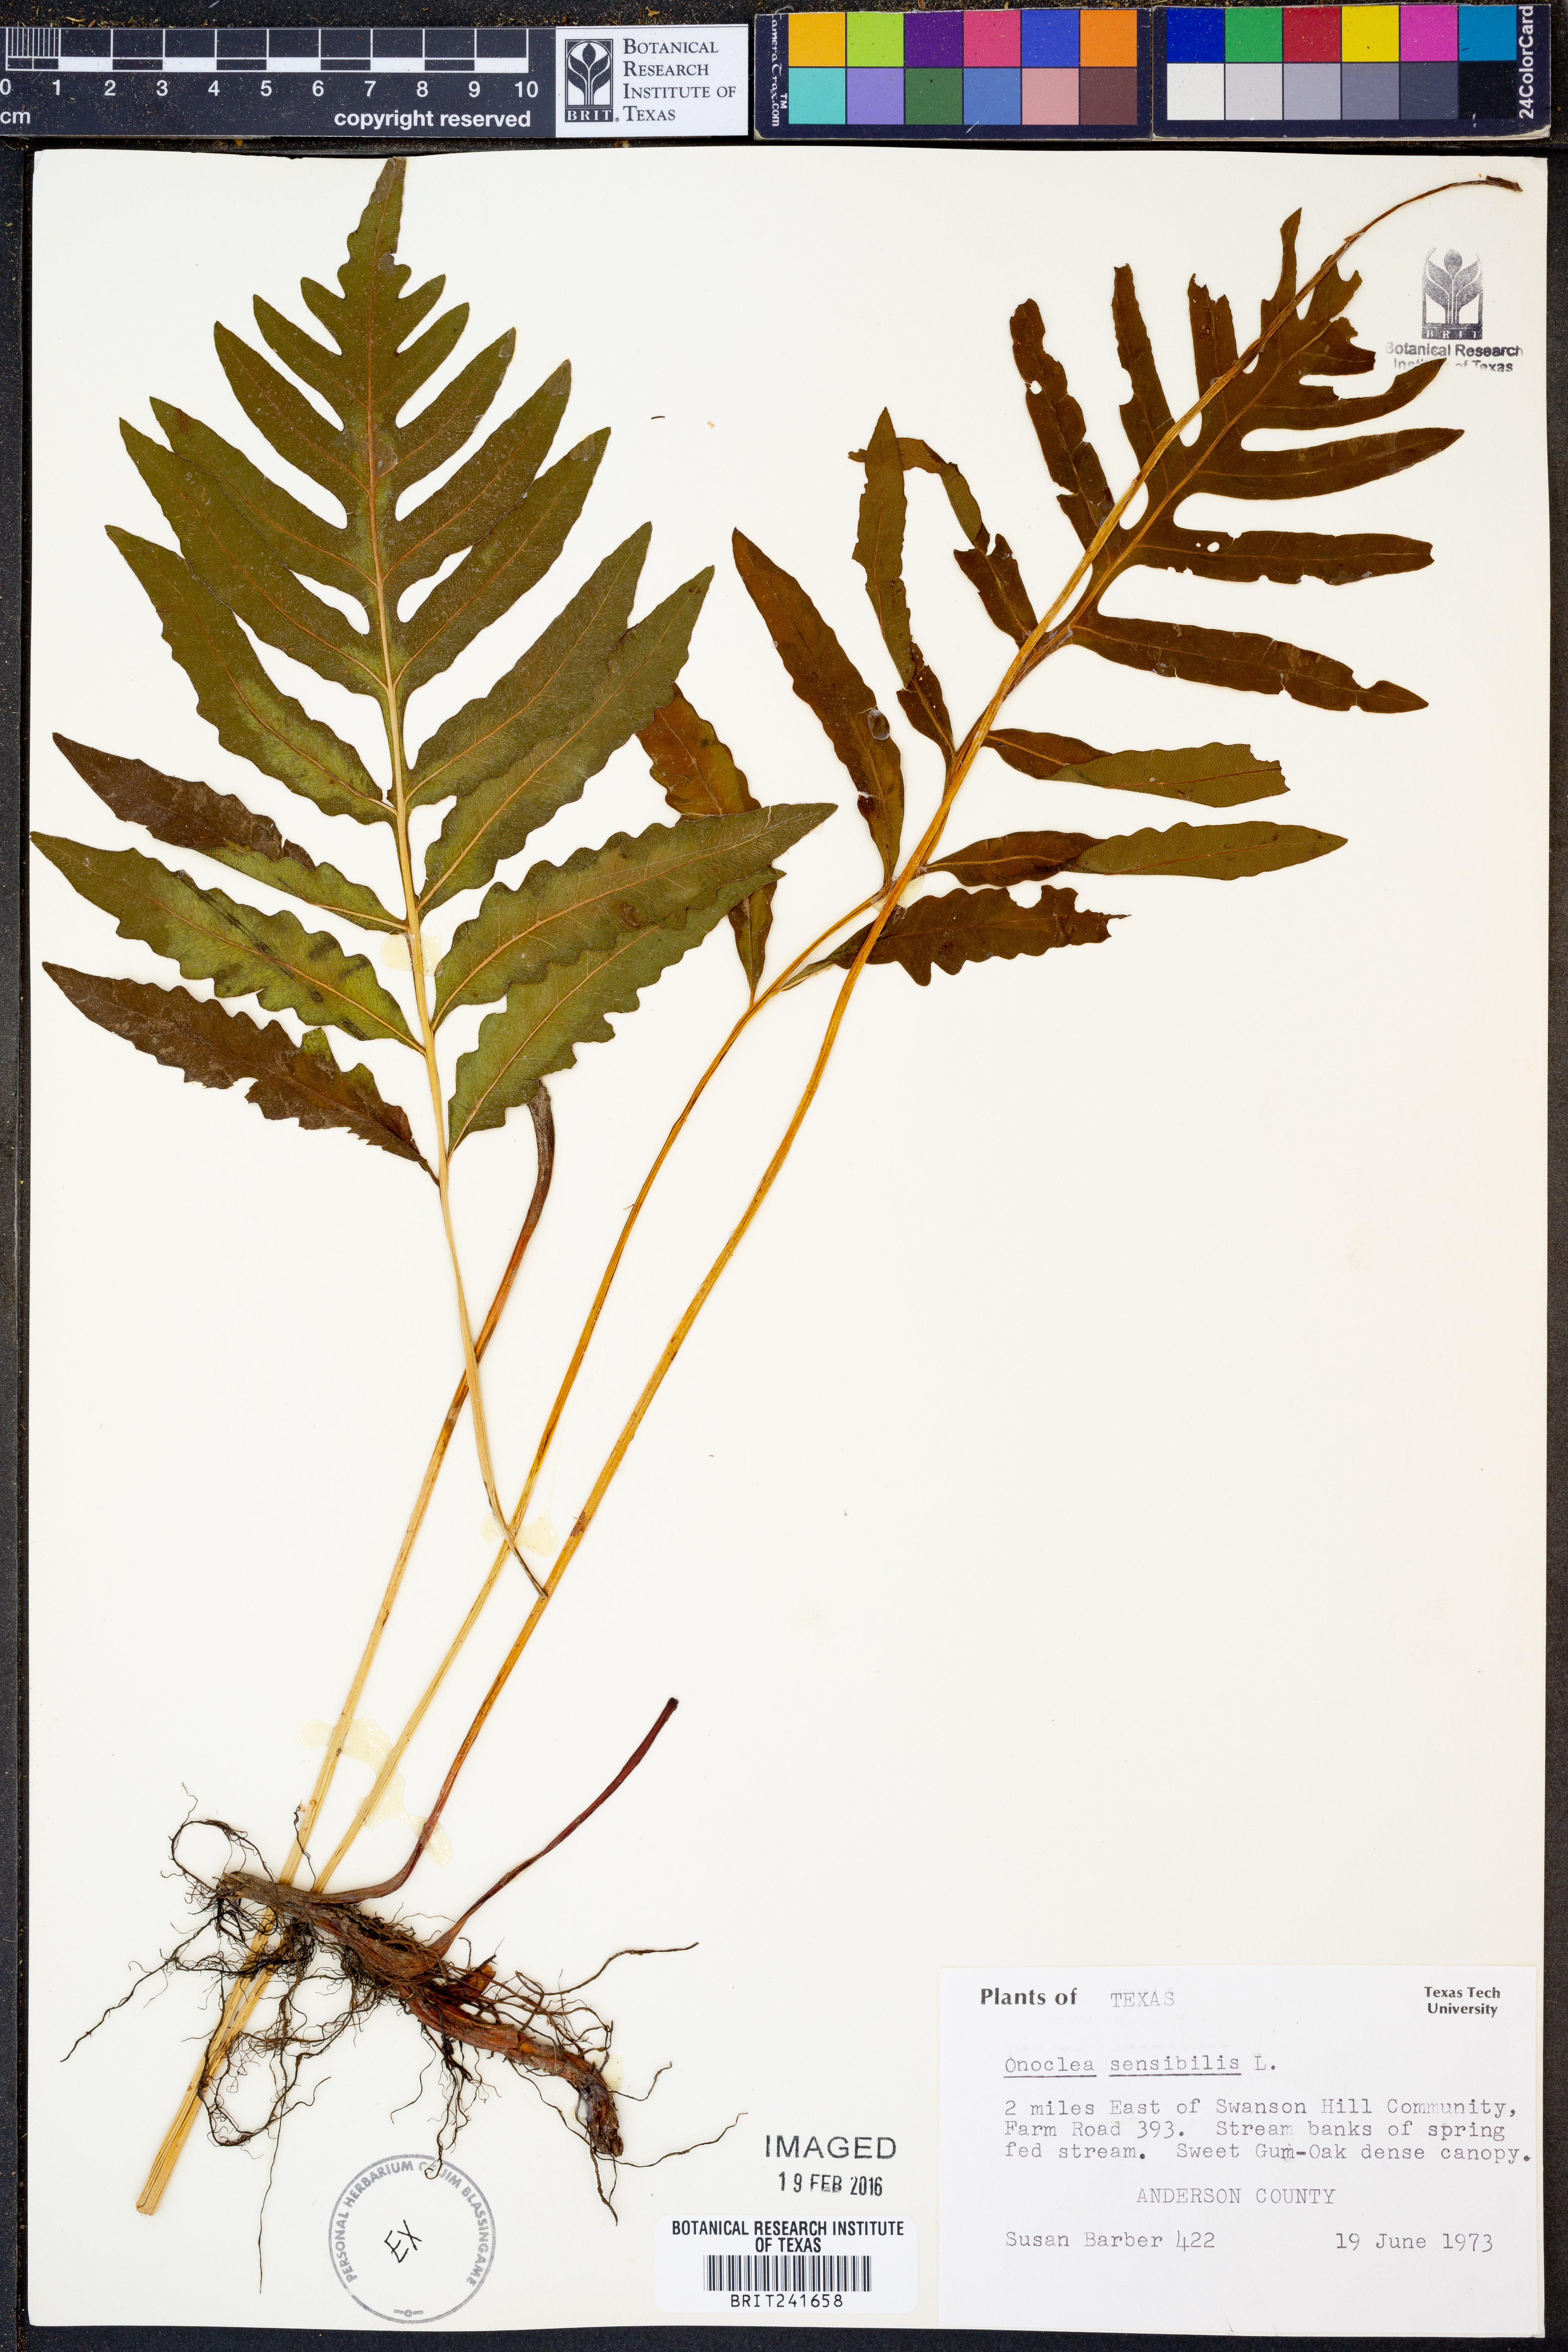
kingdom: Plantae
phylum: Tracheophyta
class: Polypodiopsida
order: Polypodiales
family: Onocleaceae
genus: Onoclea
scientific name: Onoclea sensibilis
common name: Sensitive fern
